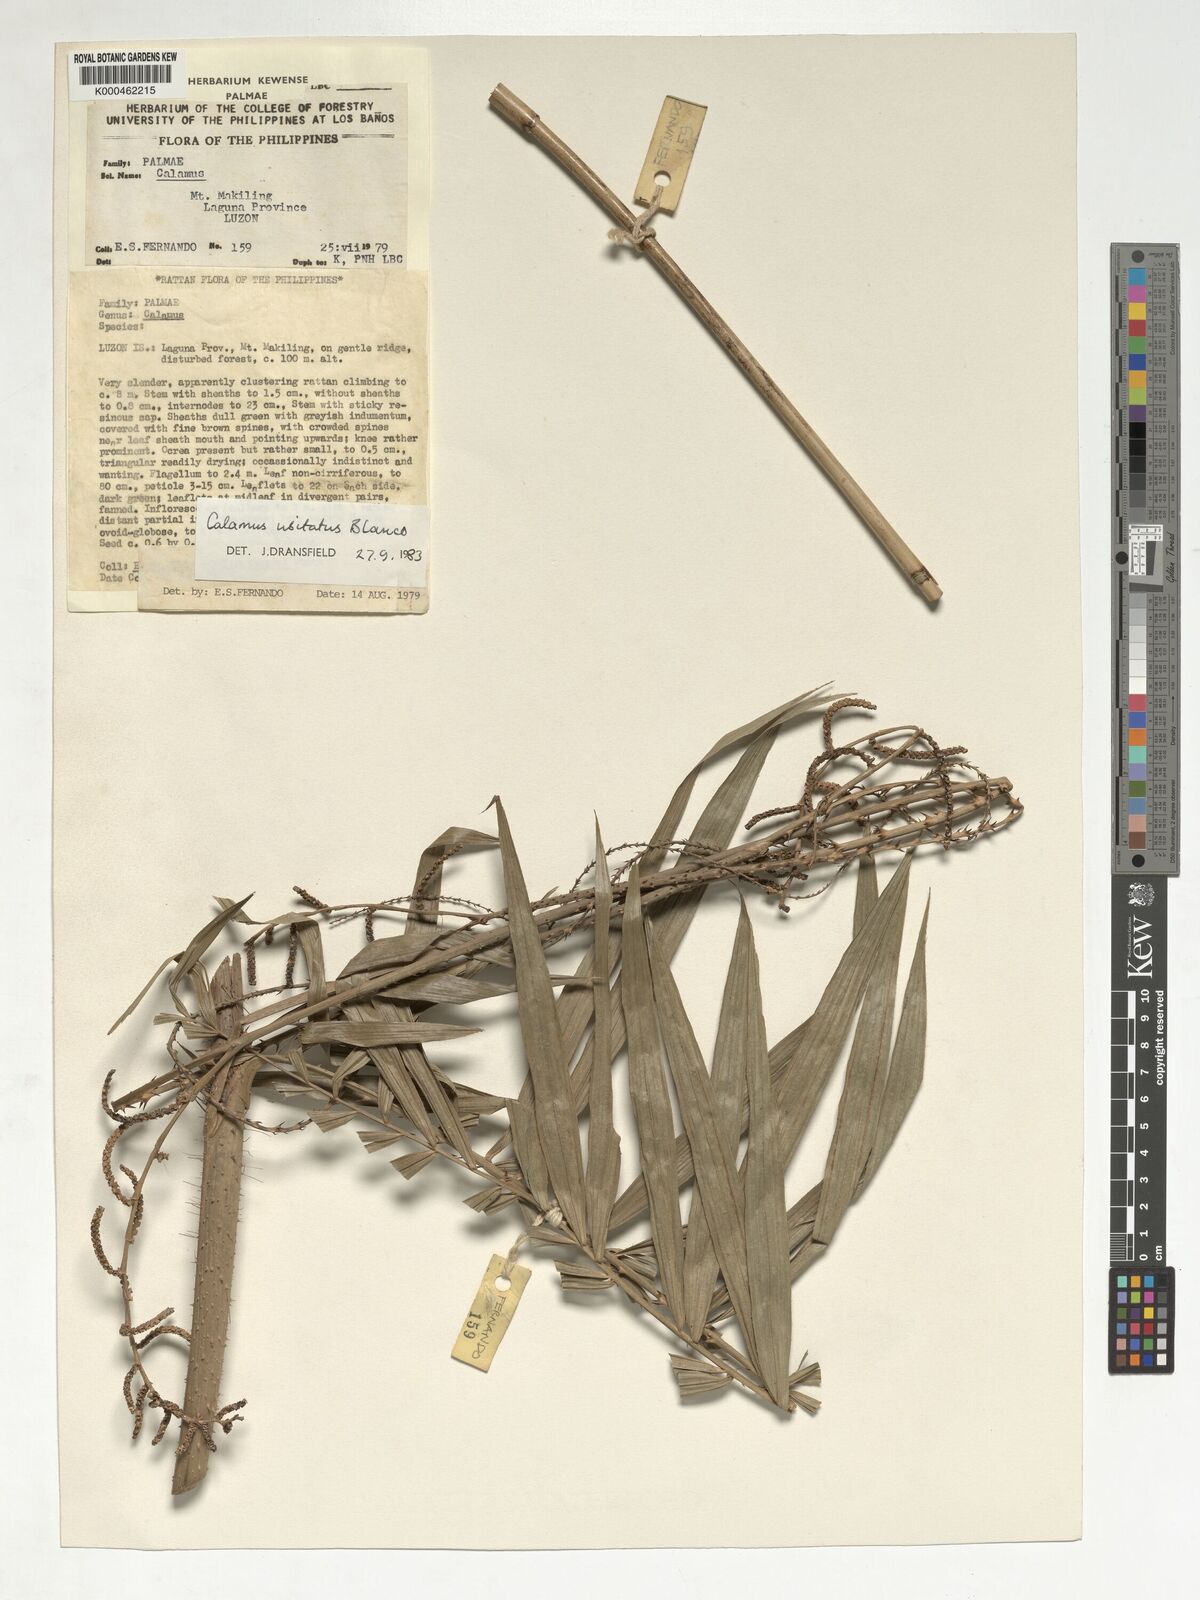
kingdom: Plantae
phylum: Tracheophyta
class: Liliopsida
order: Arecales
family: Arecaceae
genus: Calamus
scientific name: Calamus usitatus
